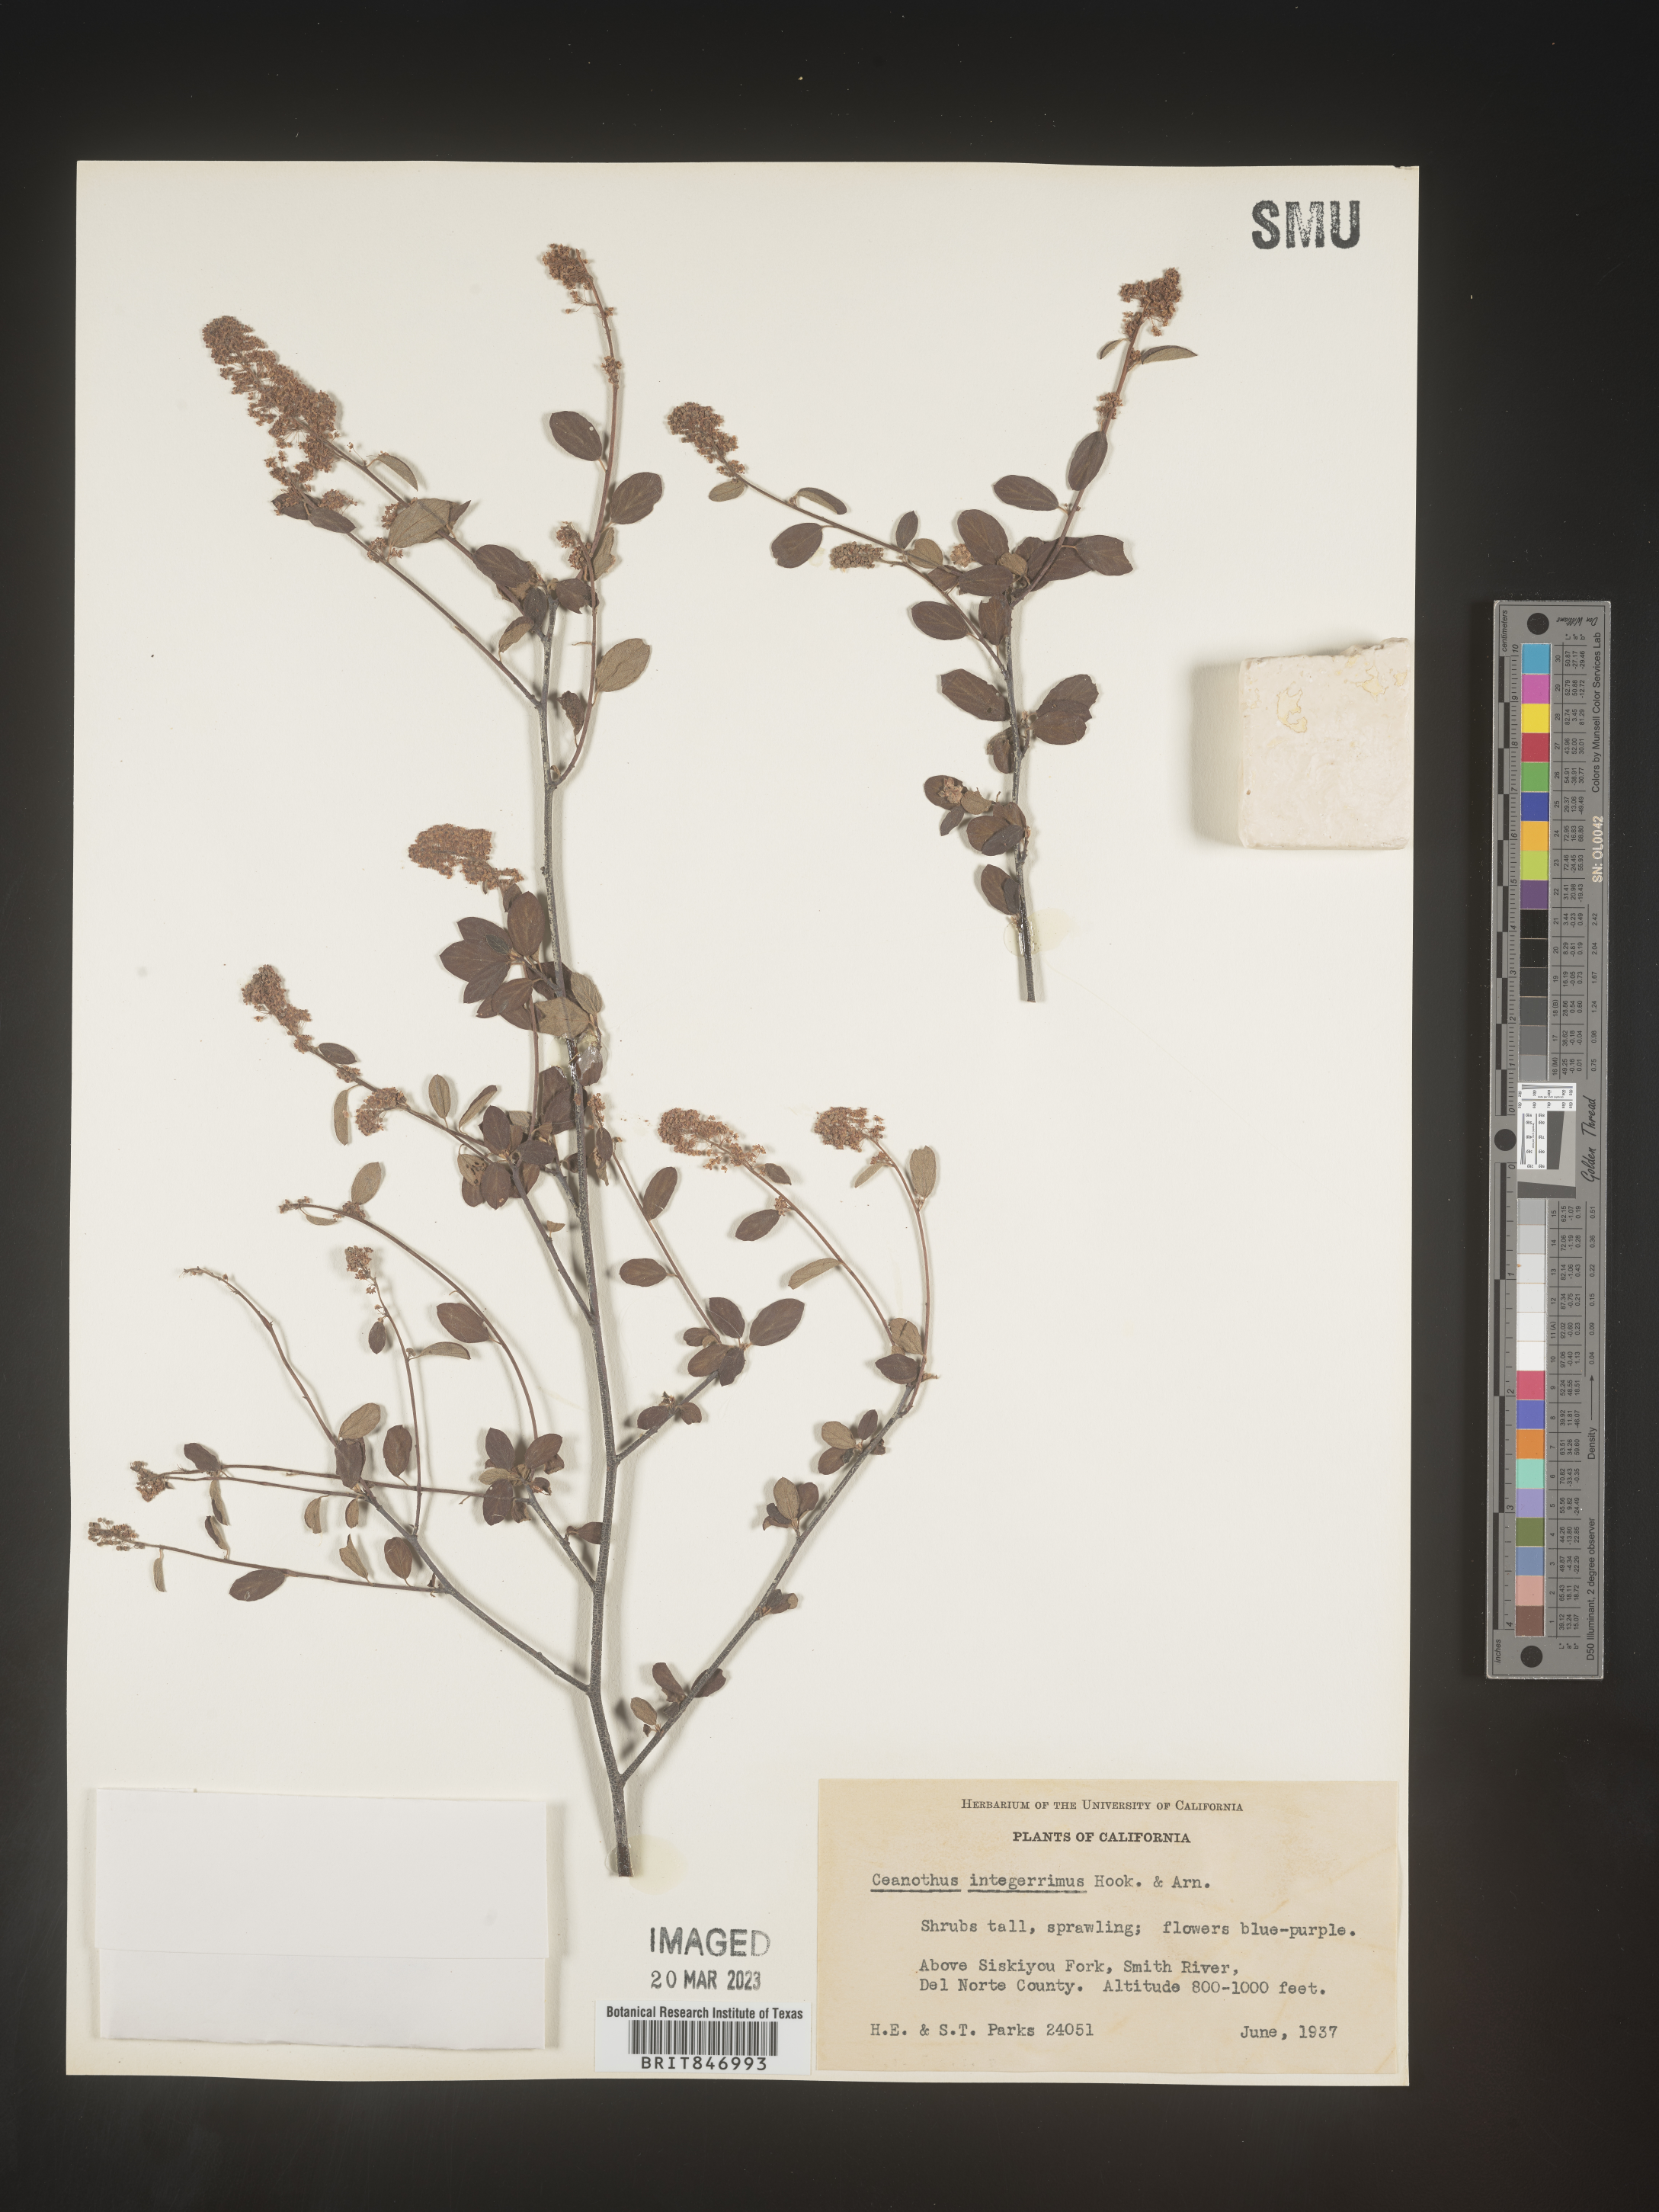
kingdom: Plantae
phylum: Tracheophyta
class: Magnoliopsida
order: Rosales
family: Rhamnaceae
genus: Ceanothus
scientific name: Ceanothus integerrimus
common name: Deerbrush ceanothus
